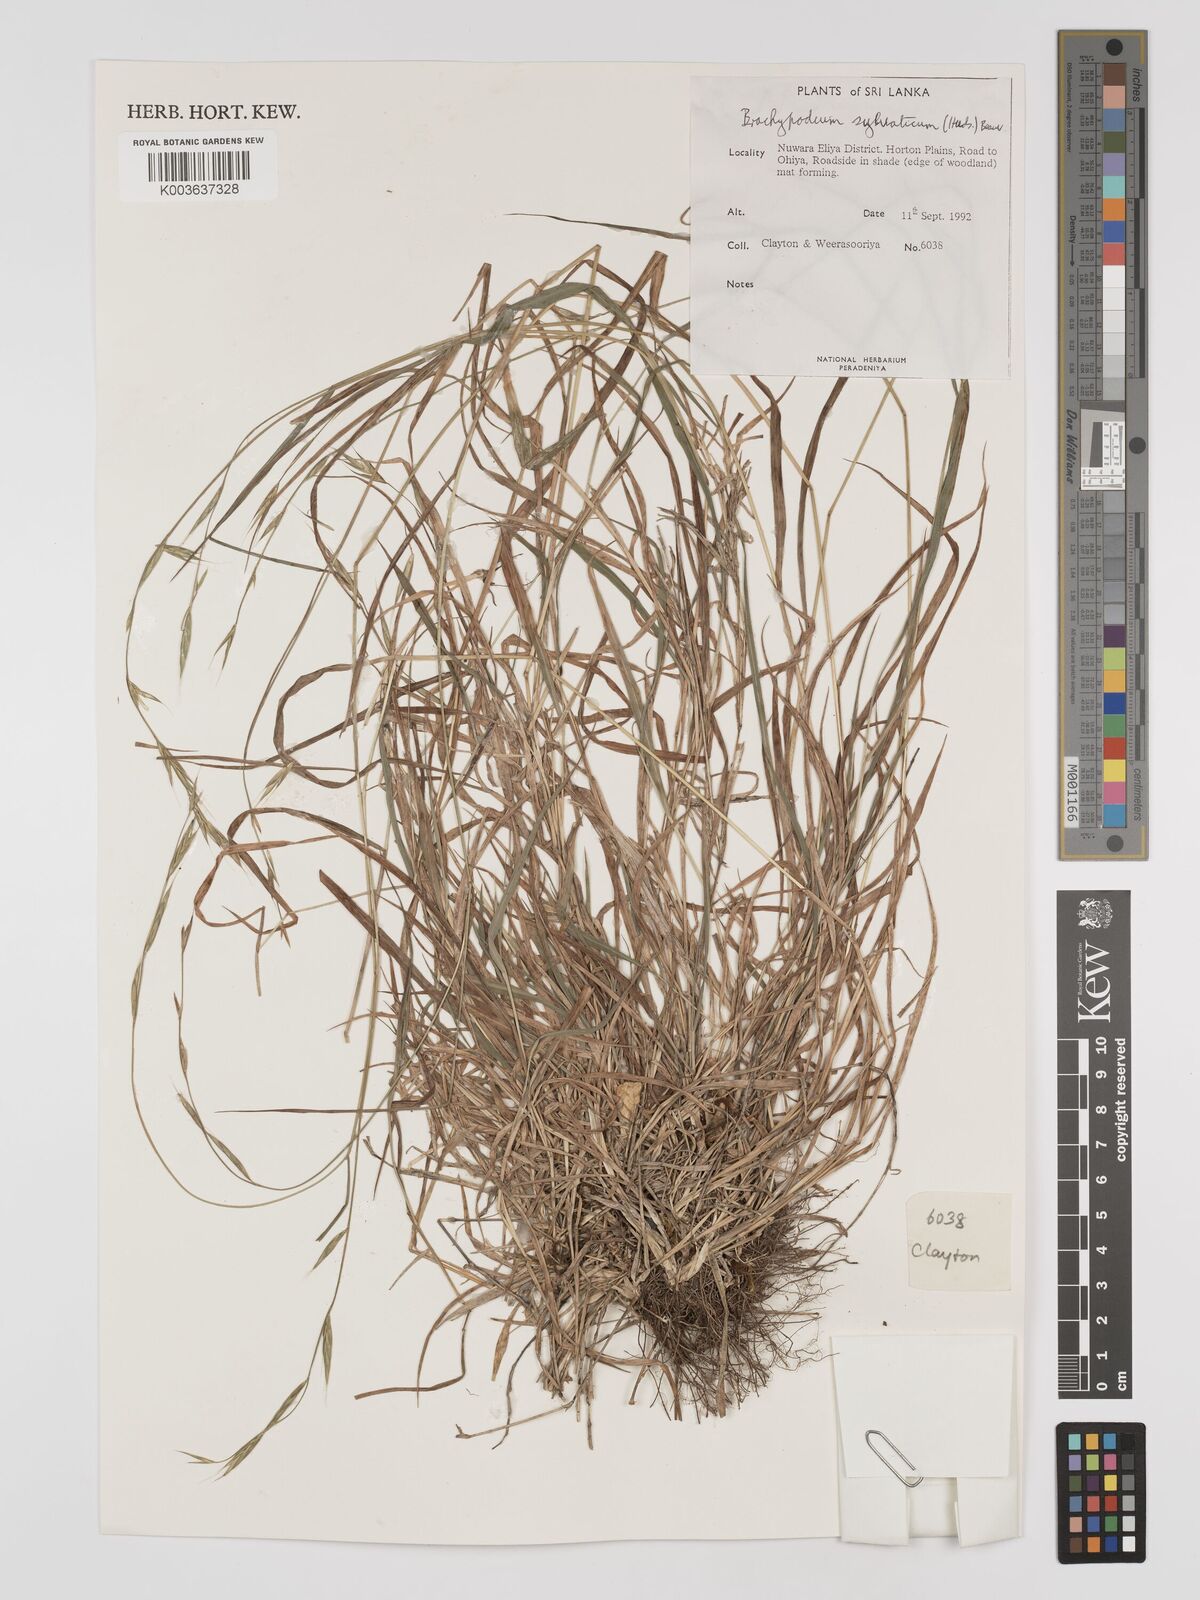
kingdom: Plantae
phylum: Tracheophyta
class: Liliopsida
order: Poales
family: Poaceae
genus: Brachypodium
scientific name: Brachypodium sylvaticum
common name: False-brome
